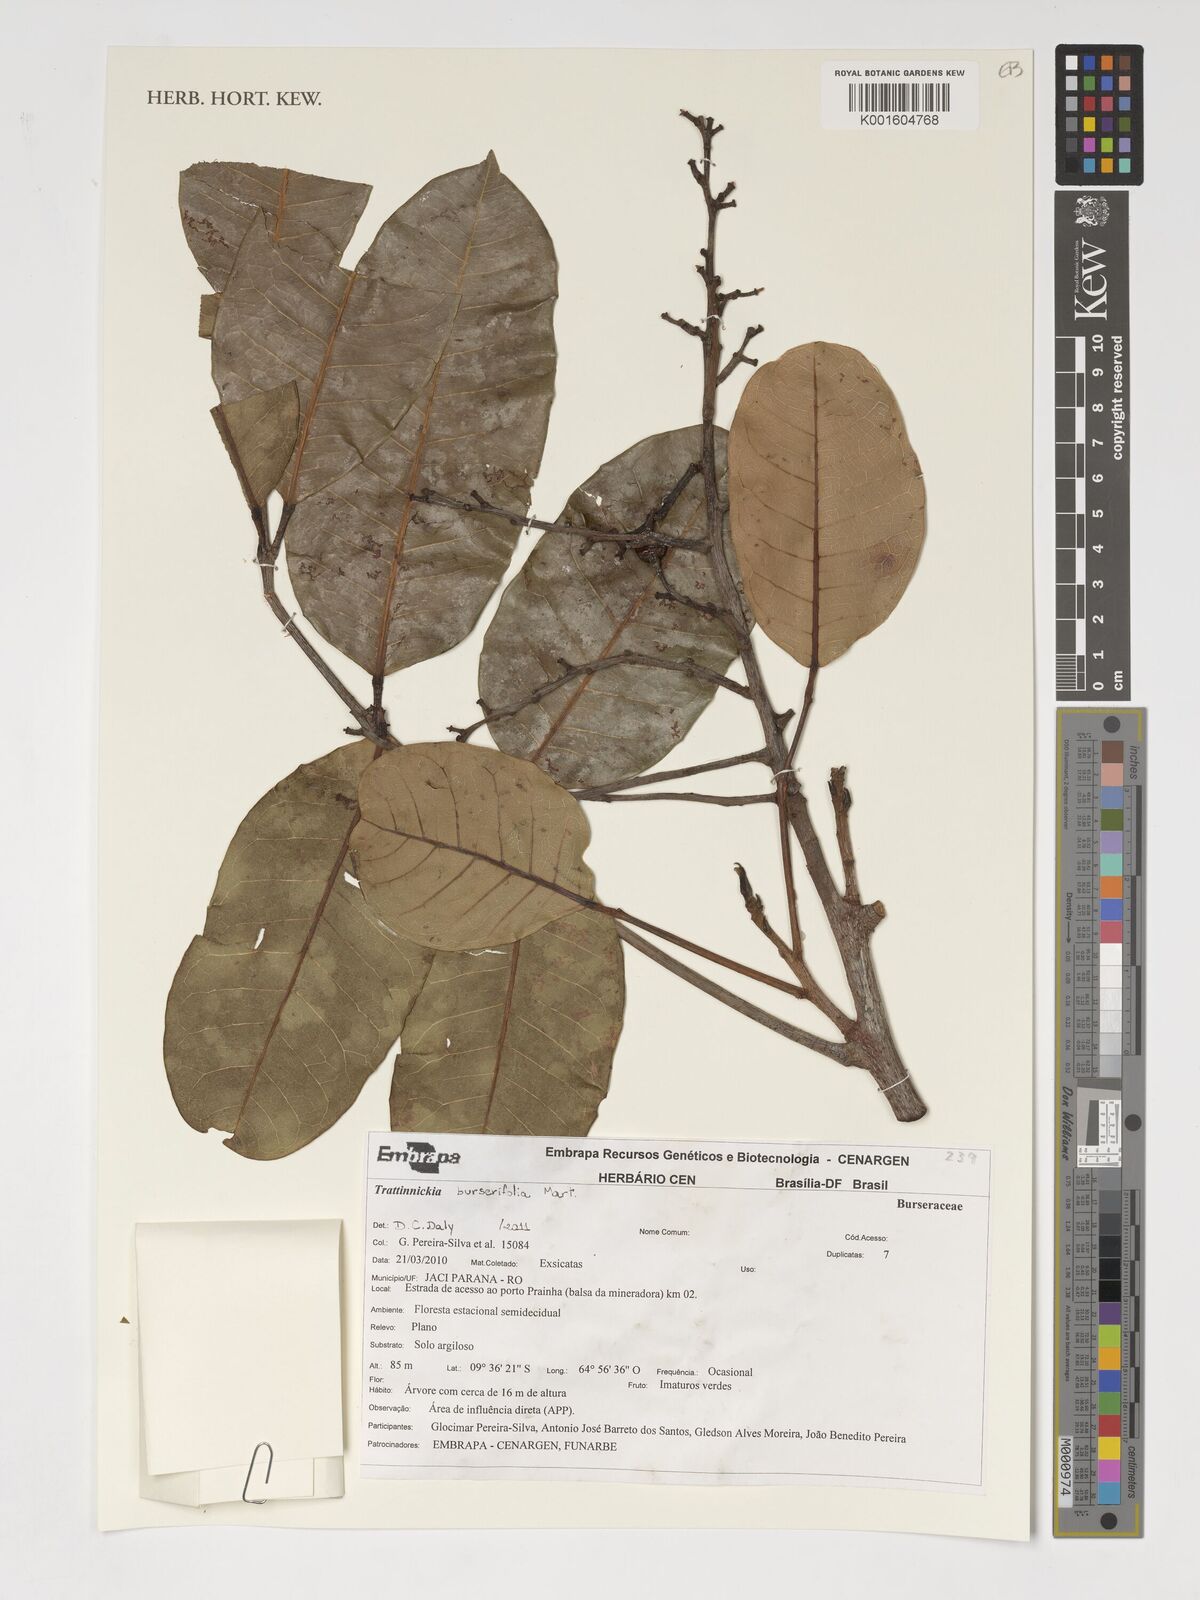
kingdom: Plantae
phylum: Tracheophyta
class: Magnoliopsida
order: Sapindales
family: Burseraceae
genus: Trattinnickia
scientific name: Trattinnickia burserifolia
